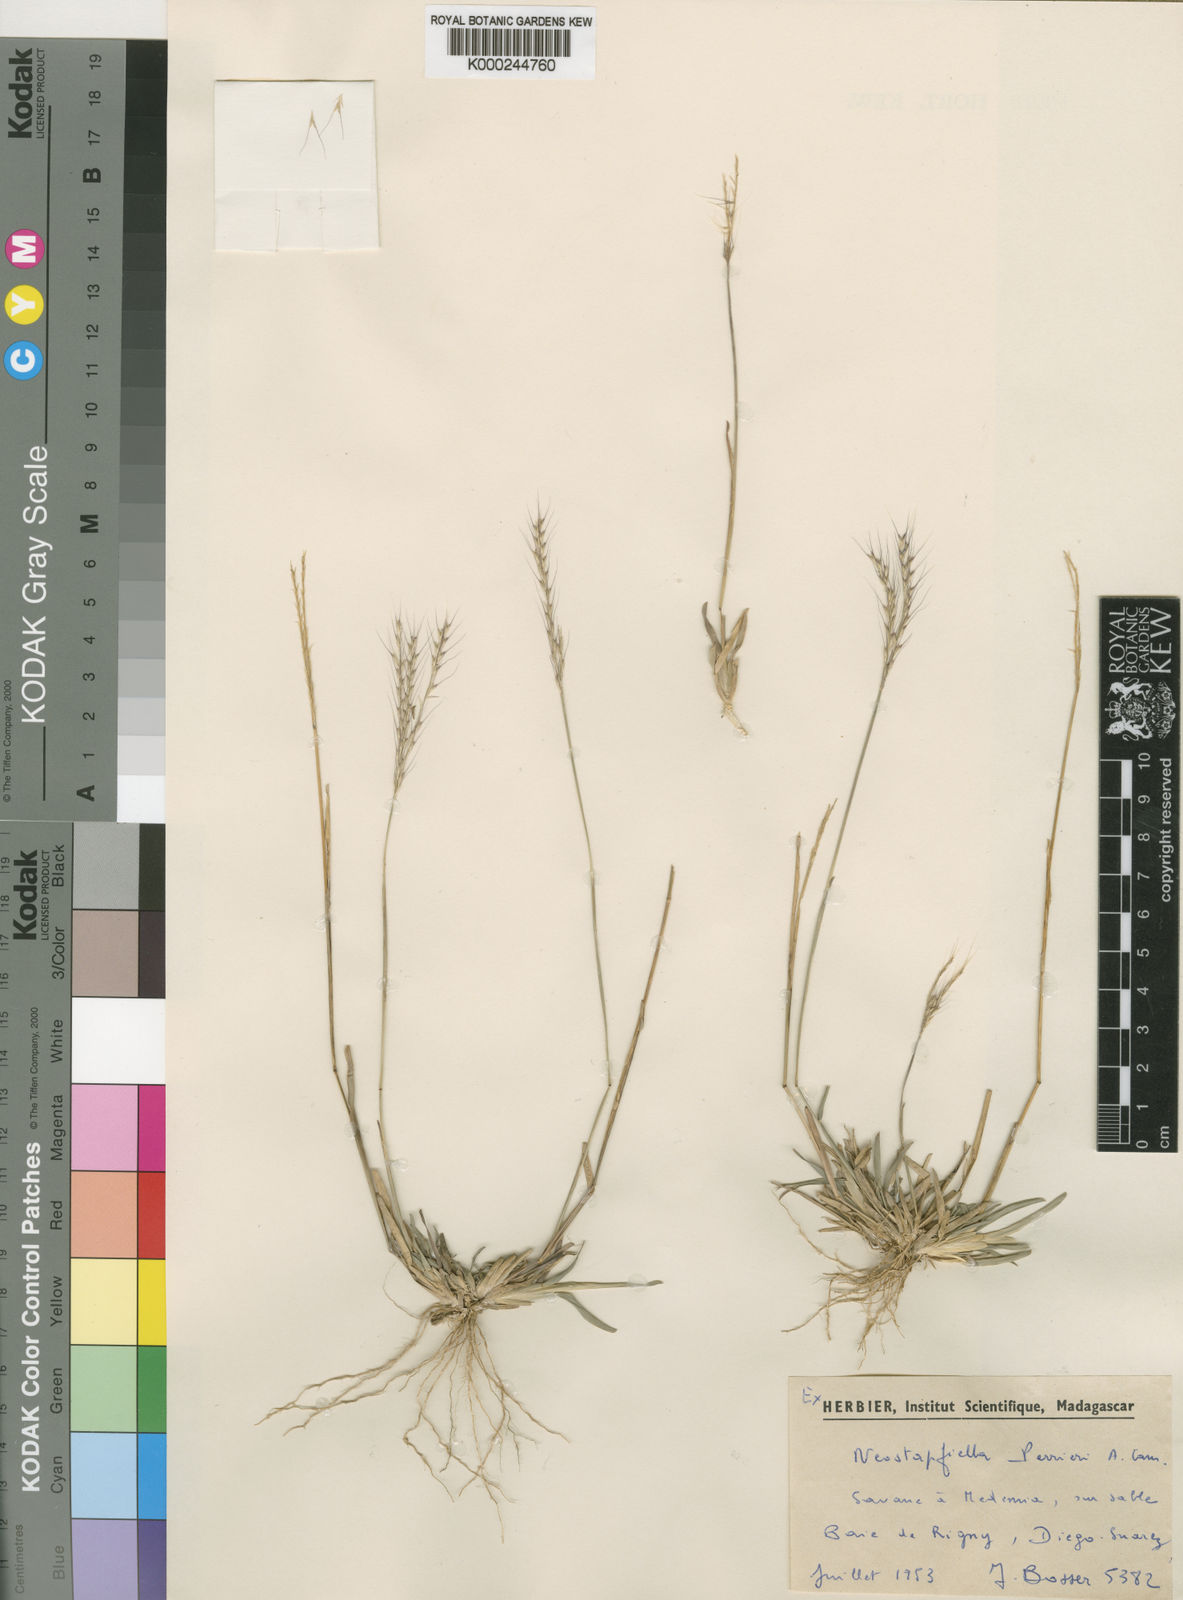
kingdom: Plantae
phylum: Tracheophyta
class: Liliopsida
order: Poales
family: Poaceae
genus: Neostapfiella
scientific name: Neostapfiella perrieri
